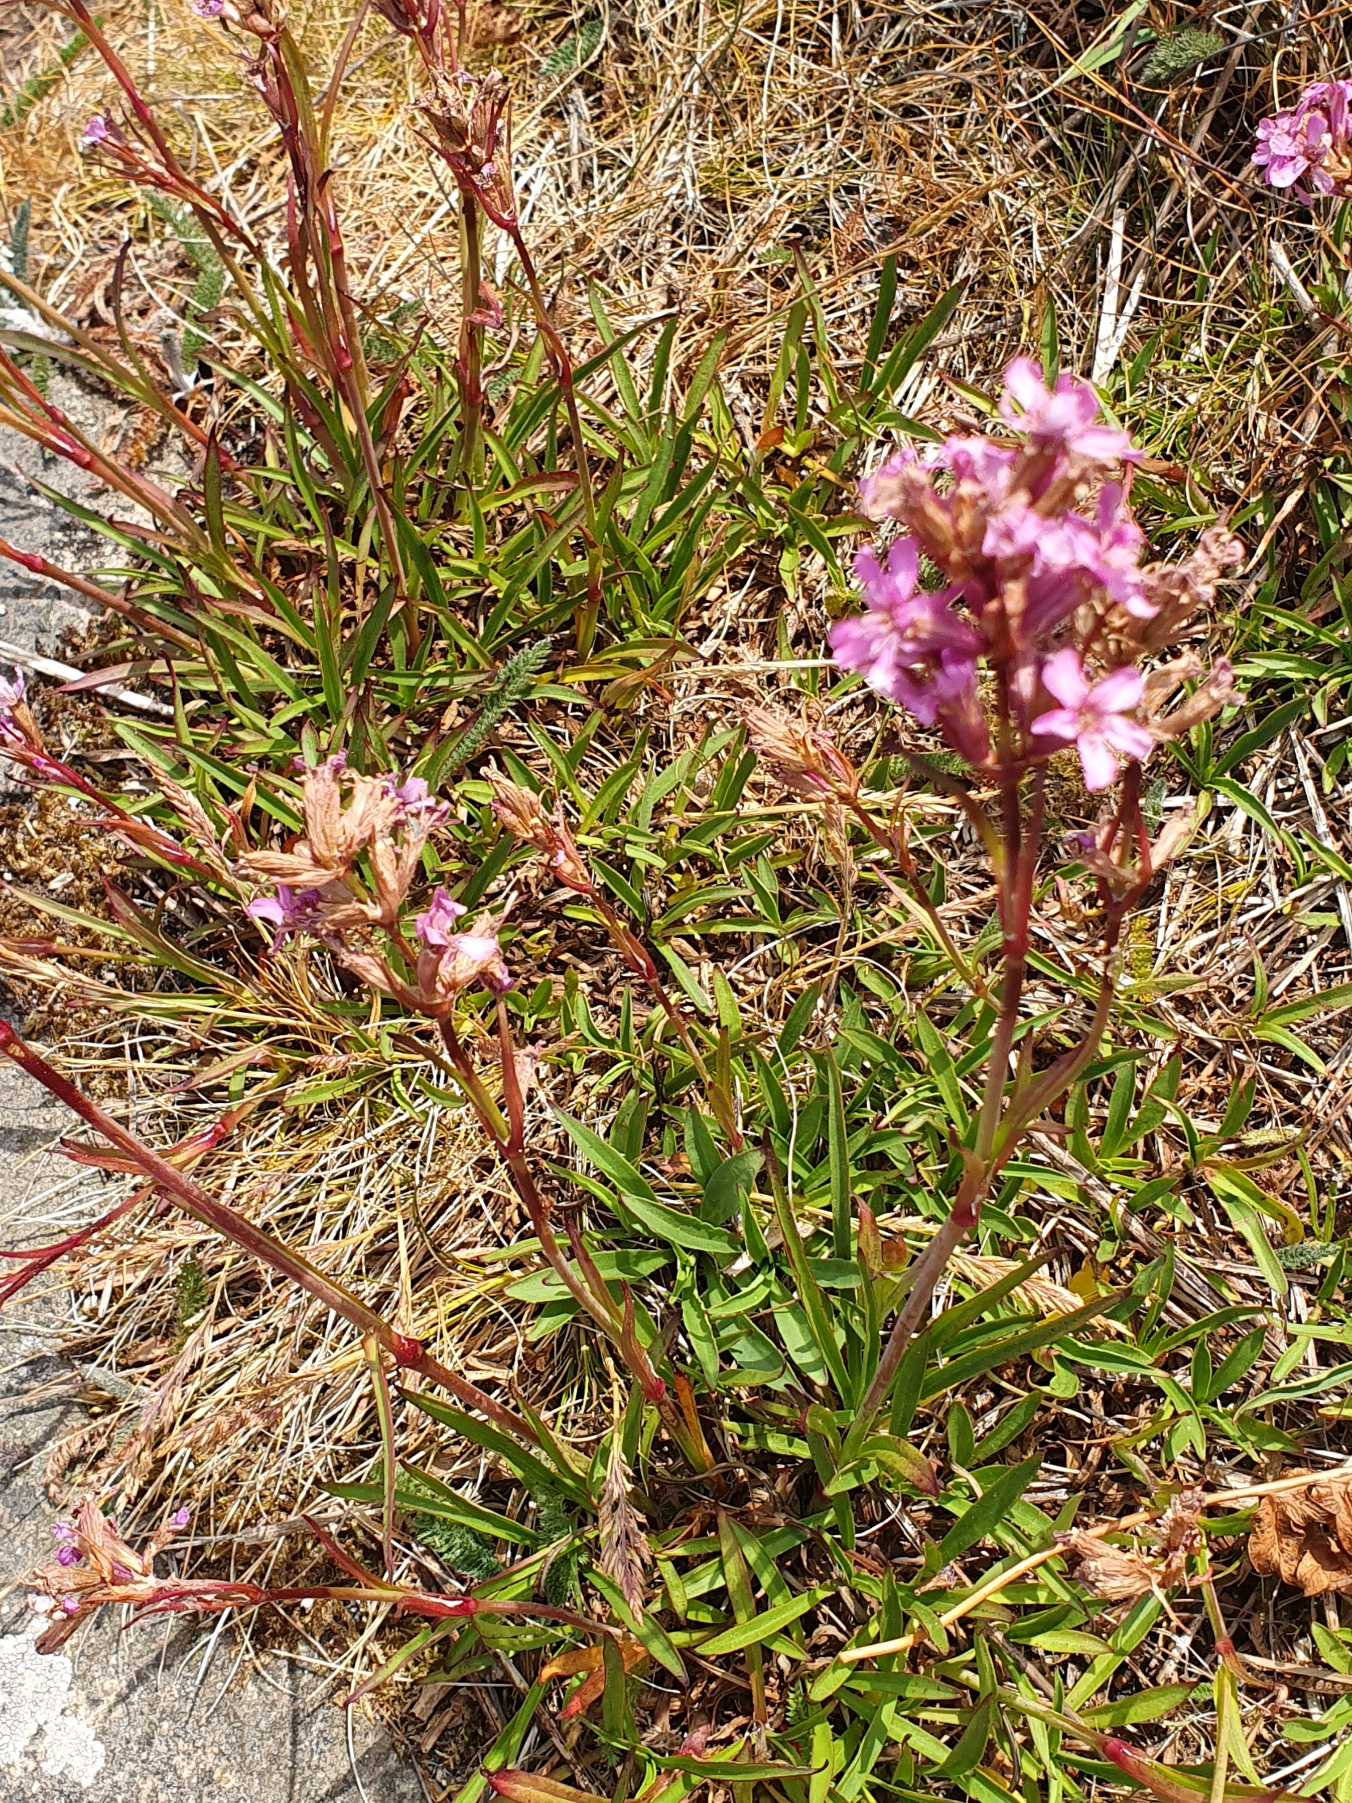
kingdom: Plantae
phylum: Tracheophyta
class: Magnoliopsida
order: Caryophyllales
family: Caryophyllaceae
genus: Viscaria
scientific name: Viscaria vulgaris
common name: Tjærenellike
